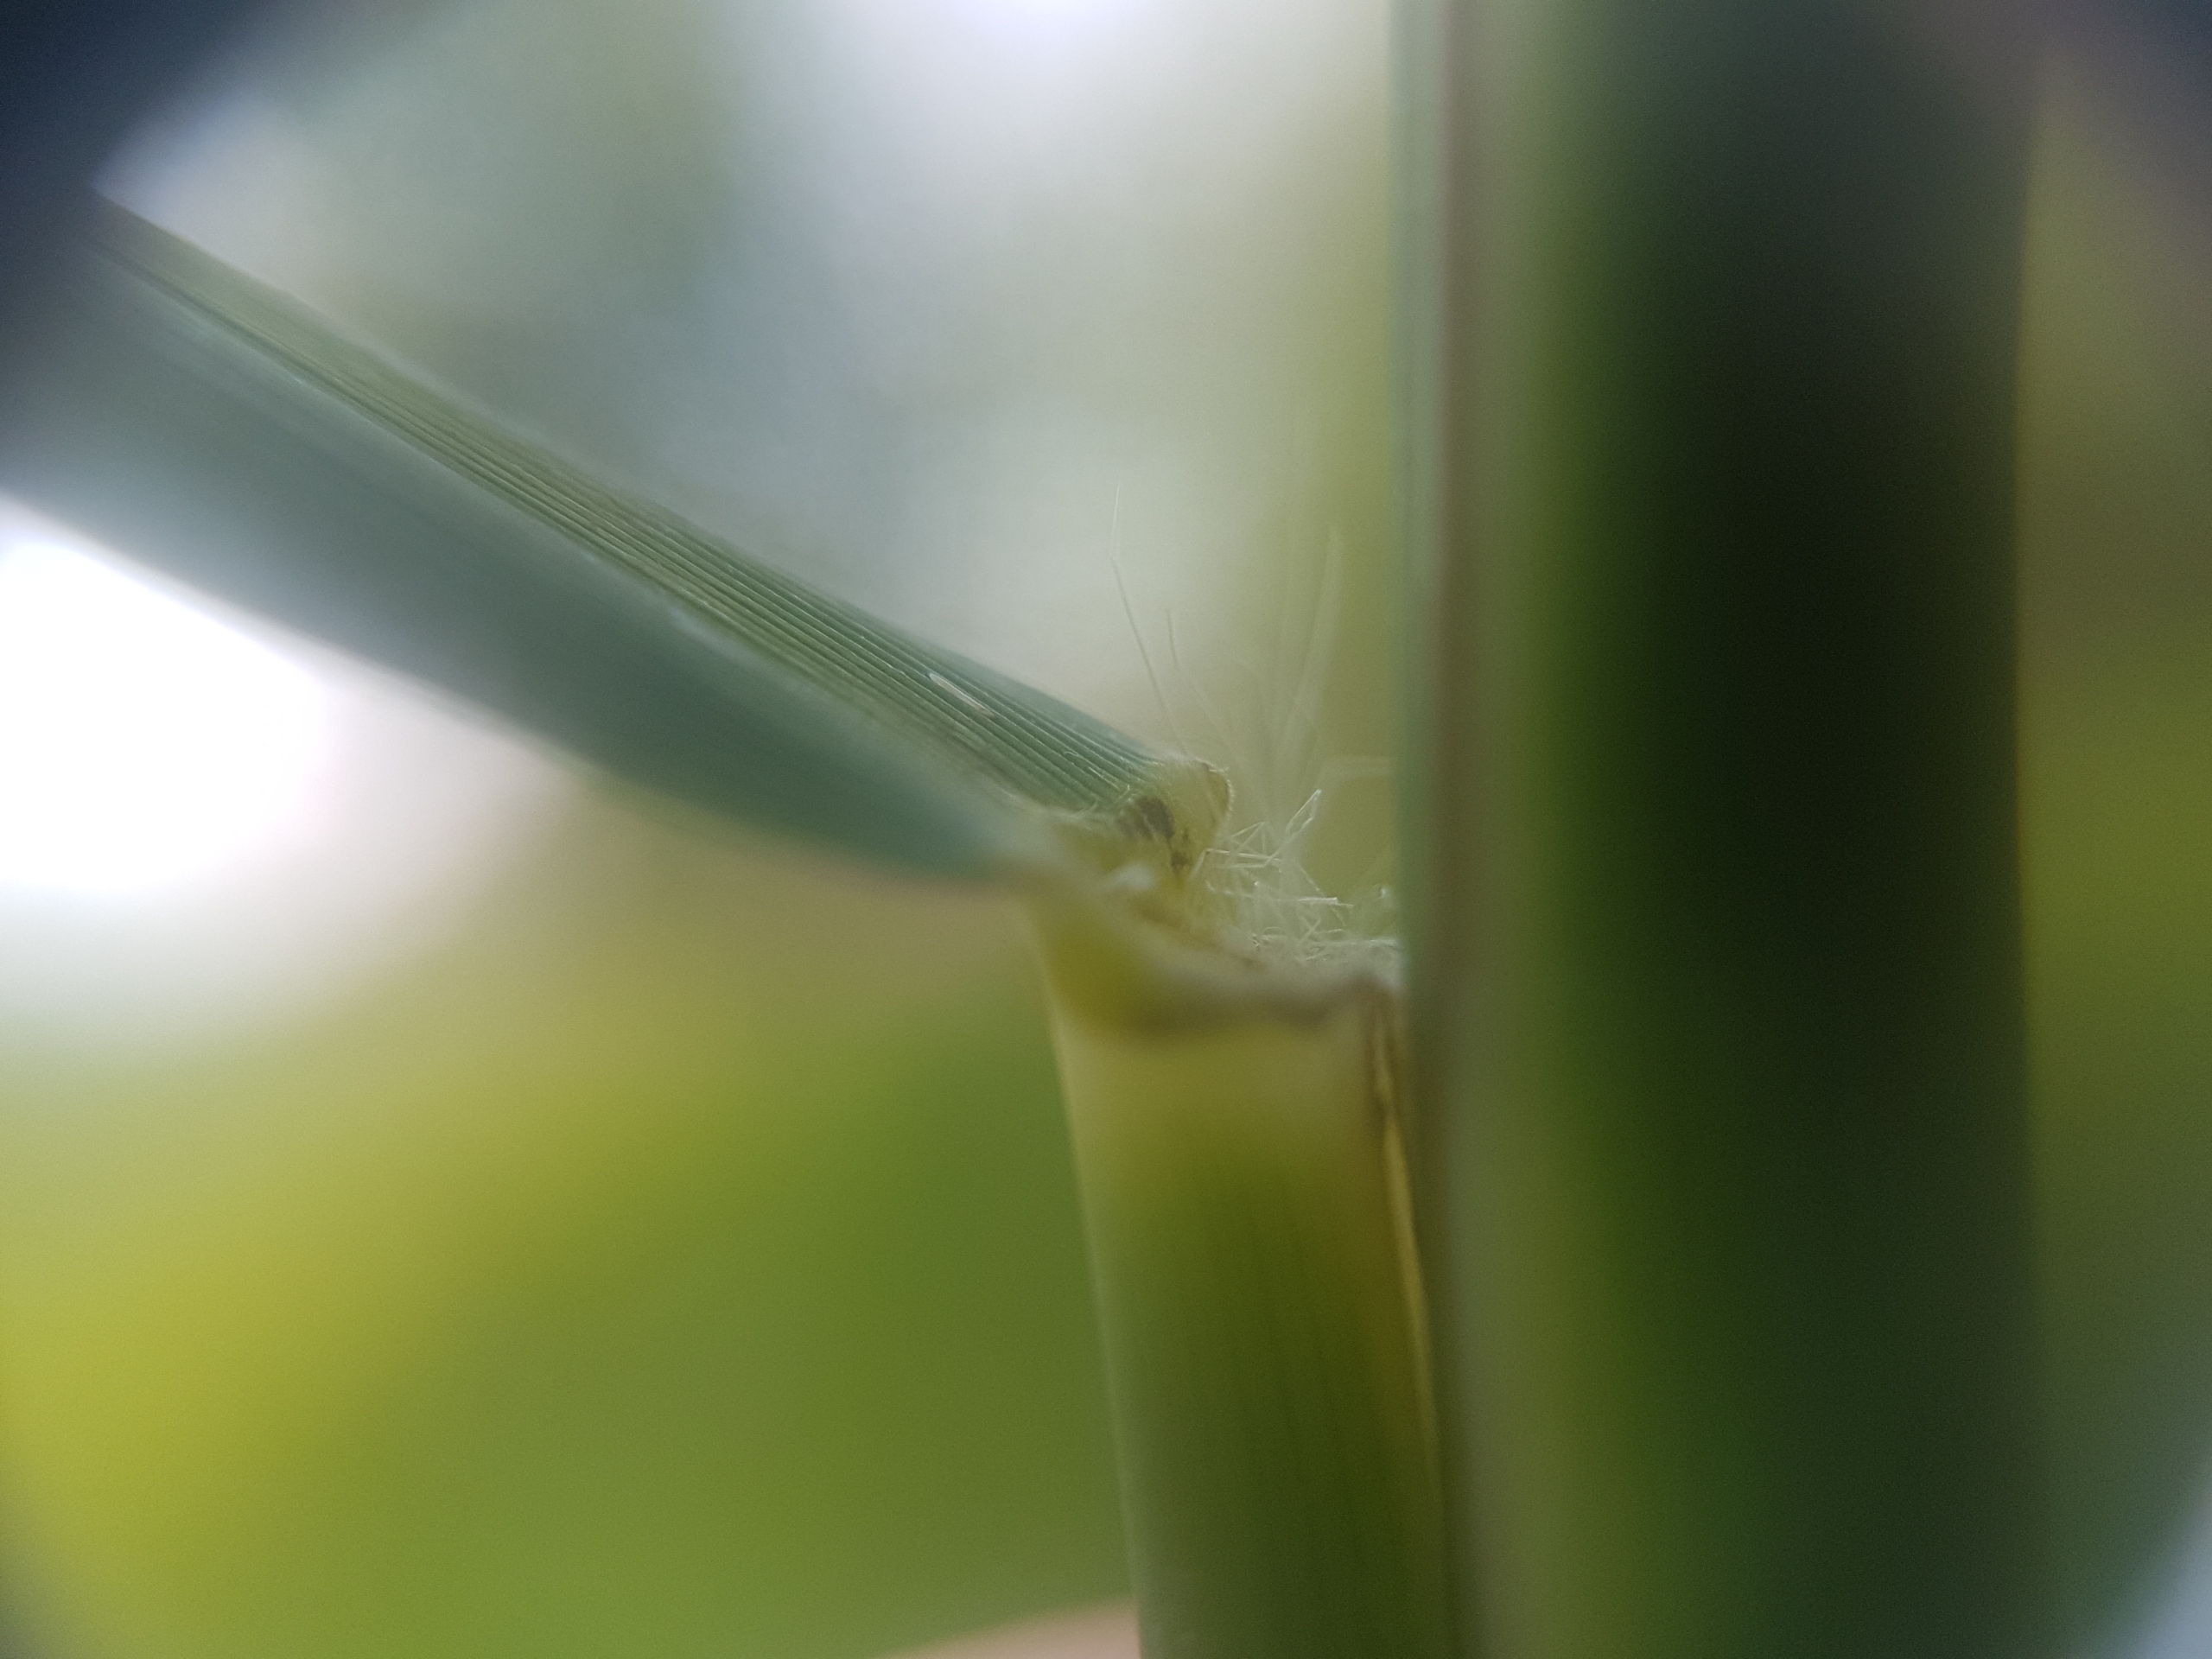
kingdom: Plantae
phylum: Tracheophyta
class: Liliopsida
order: Poales
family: Poaceae
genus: Phragmites
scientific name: Phragmites australis
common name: Tagrør
